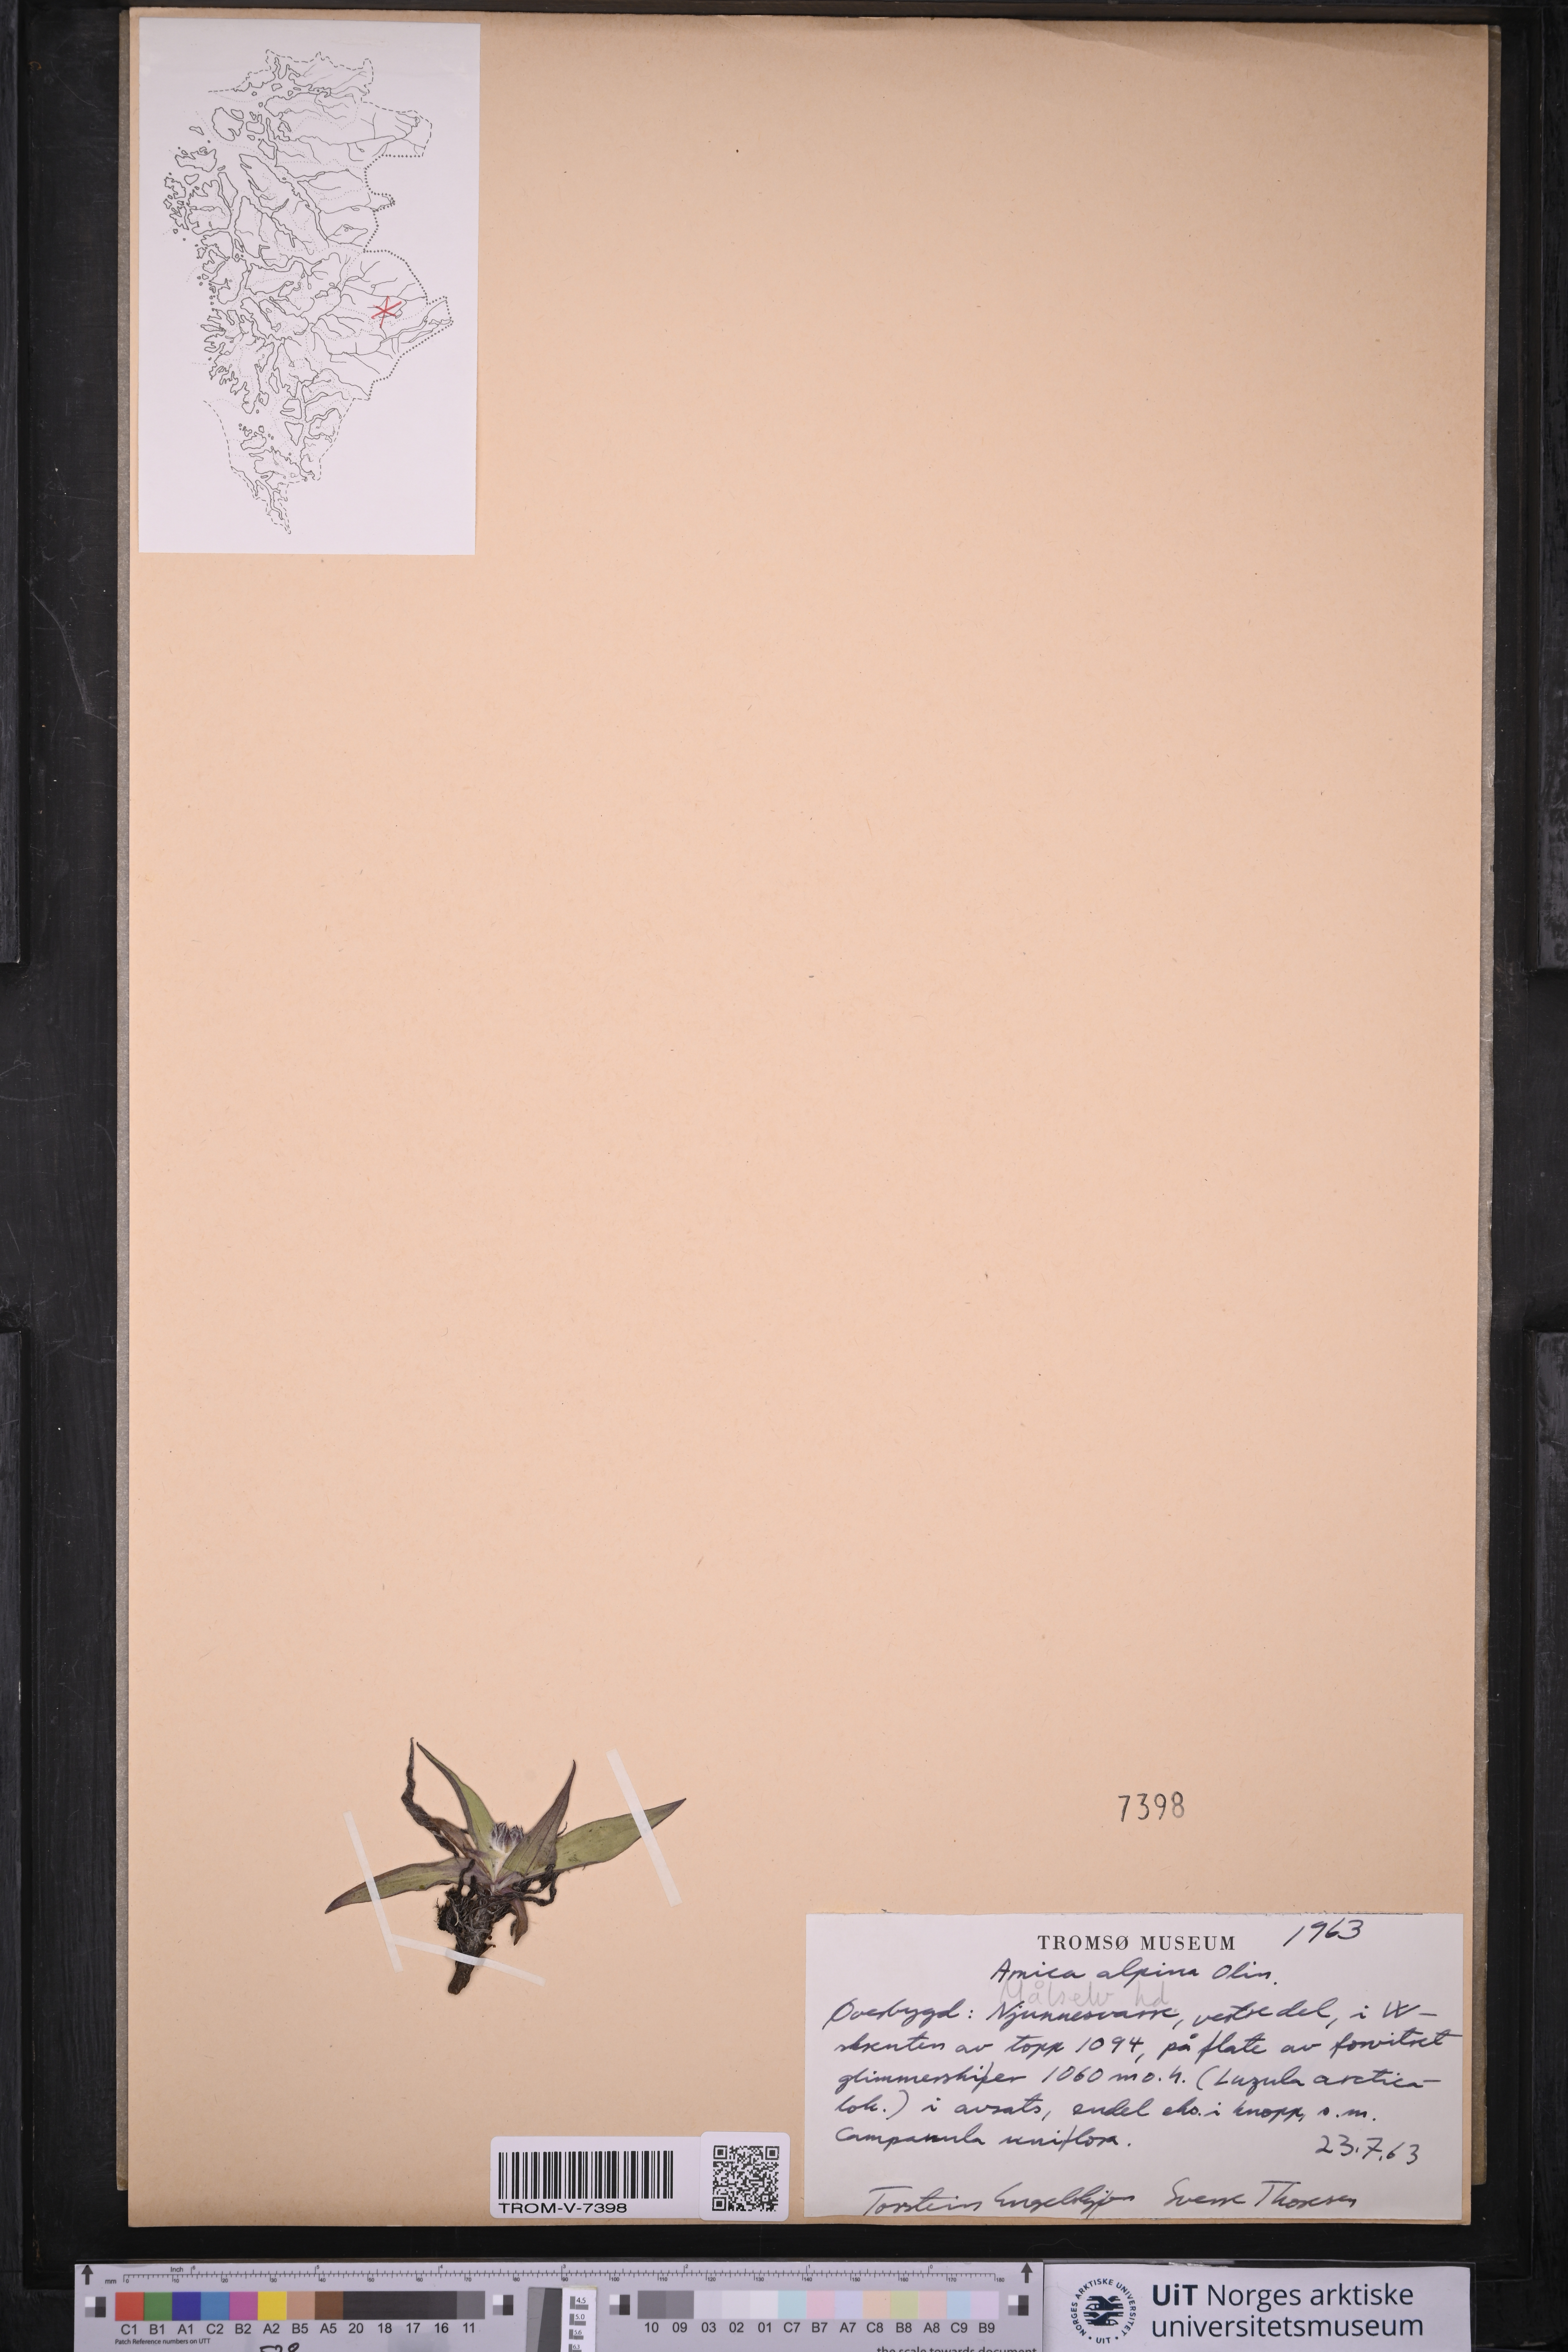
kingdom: Plantae
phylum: Tracheophyta
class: Magnoliopsida
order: Asterales
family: Asteraceae
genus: Arnica
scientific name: Arnica angustifolia
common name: Arctic arnica
